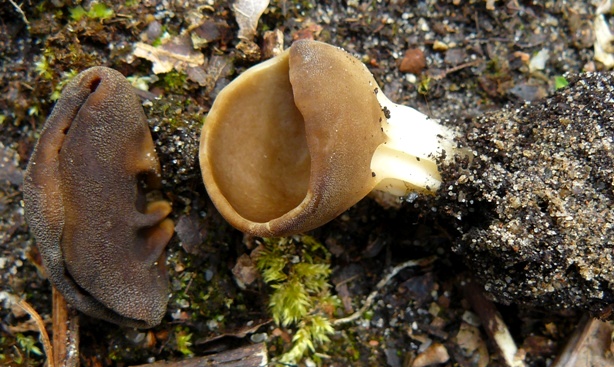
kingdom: Fungi
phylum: Ascomycota
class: Pezizomycetes
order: Pezizales
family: Helvellaceae
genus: Helvella
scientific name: Helvella acetabulum
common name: pokal-foldhat
